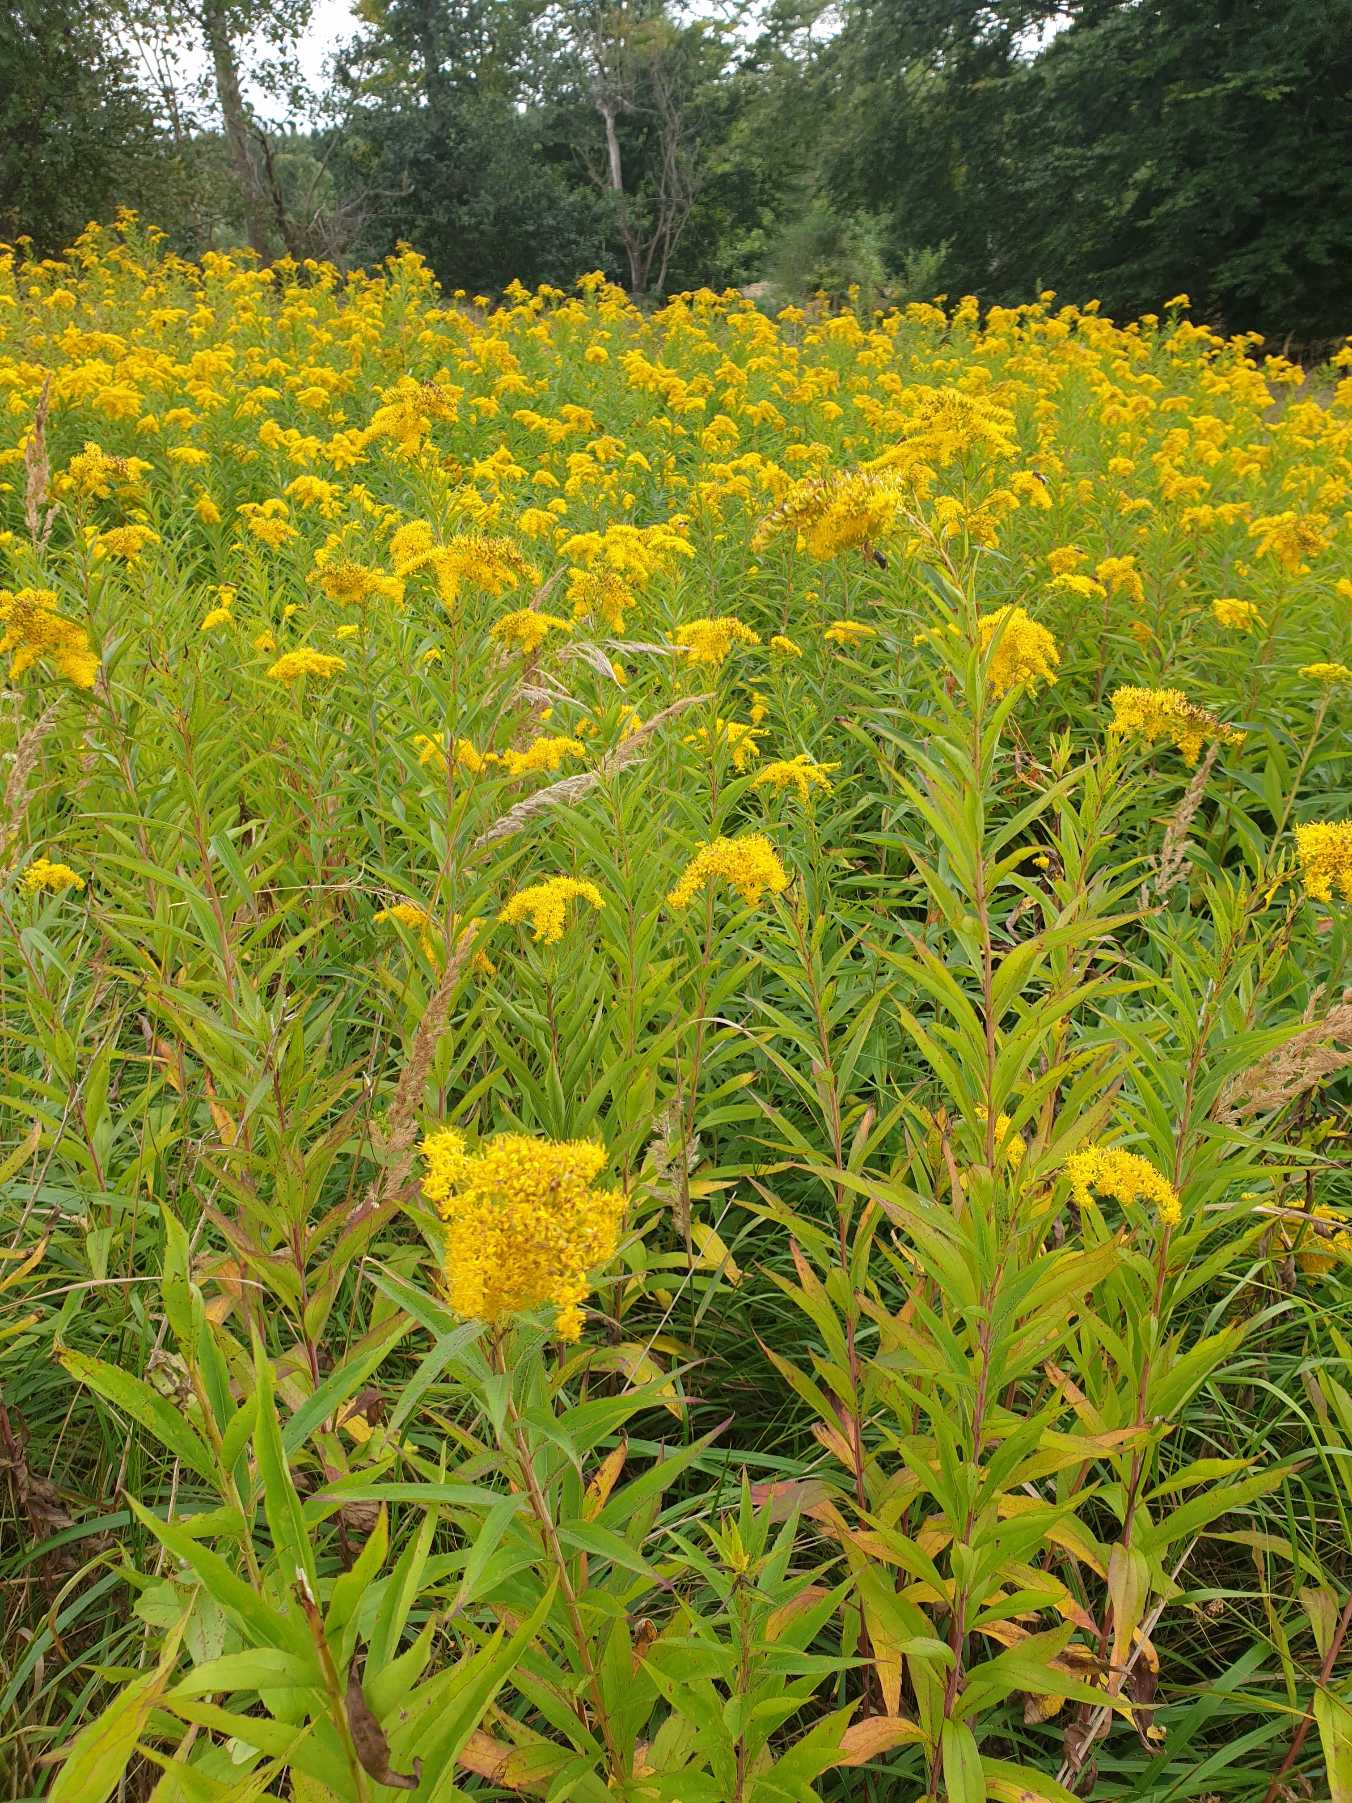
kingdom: Plantae
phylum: Tracheophyta
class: Magnoliopsida
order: Asterales
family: Asteraceae
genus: Solidago
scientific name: Solidago gigantea
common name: Sildig gyldenris
